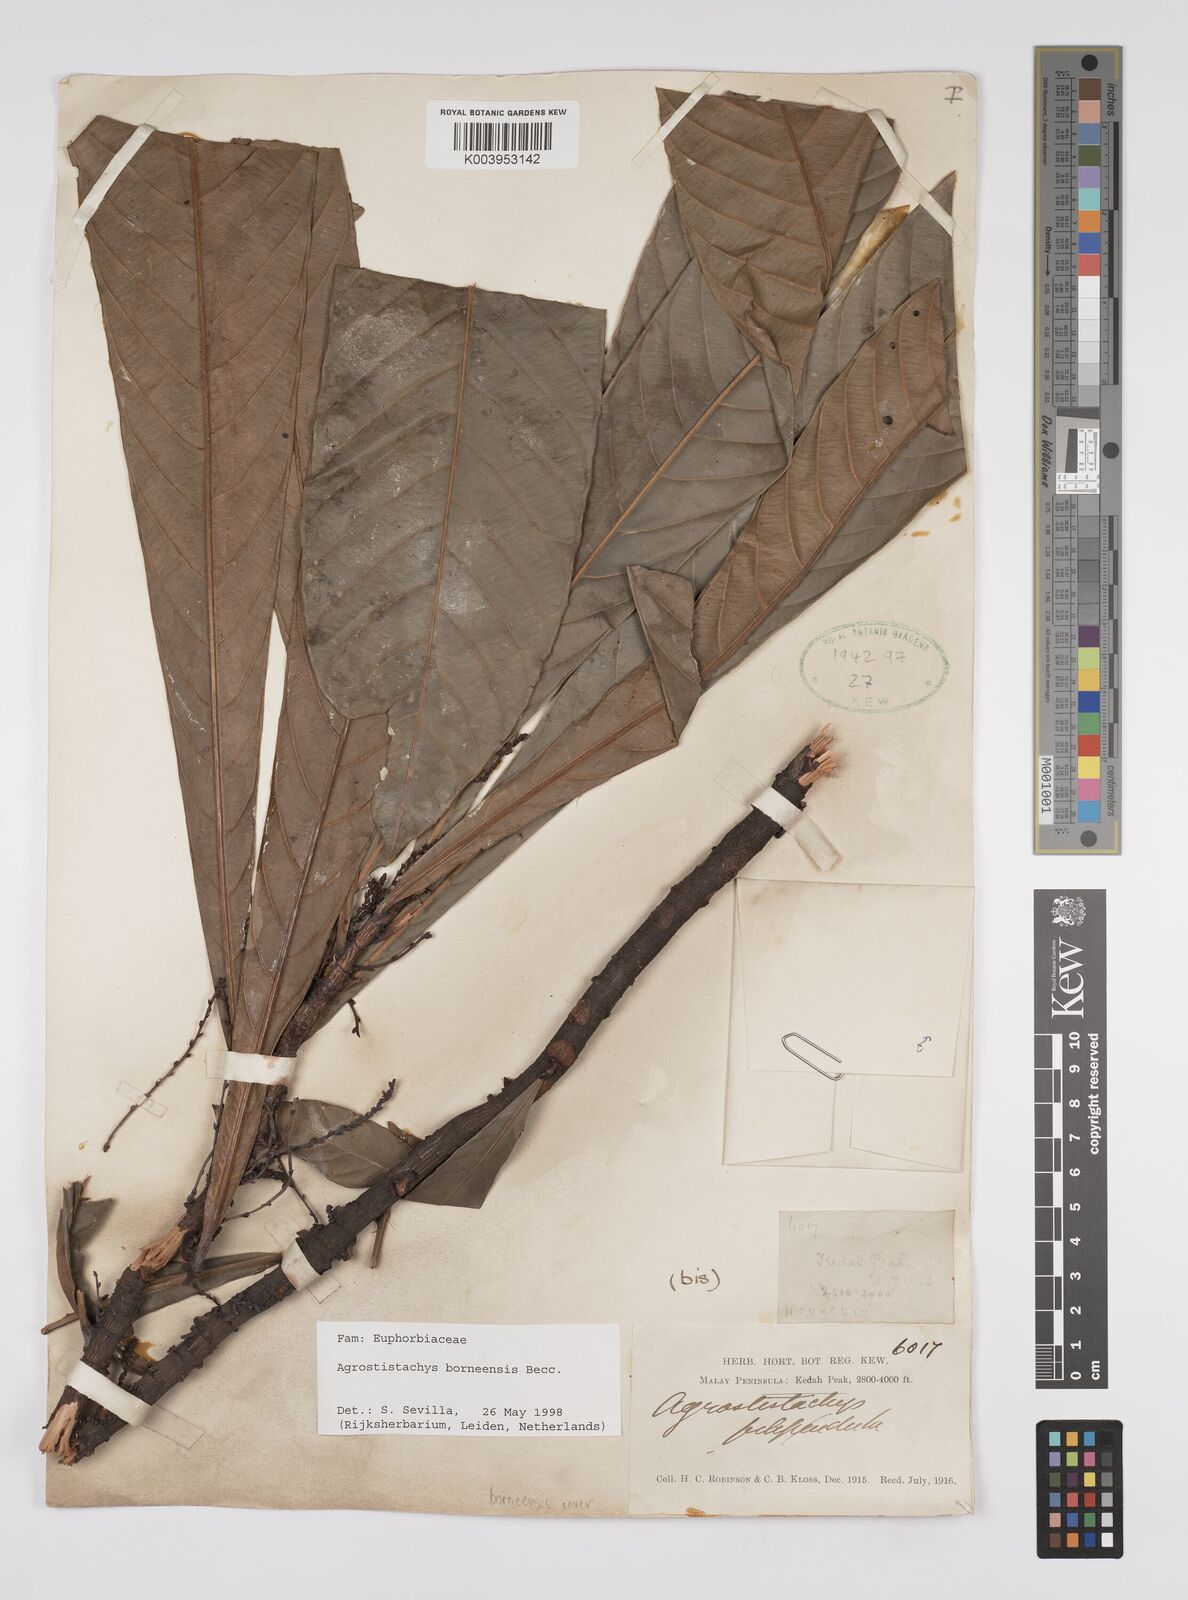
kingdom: Plantae
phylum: Tracheophyta
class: Magnoliopsida
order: Malpighiales
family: Euphorbiaceae
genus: Agrostistachys
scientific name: Agrostistachys borneensis
